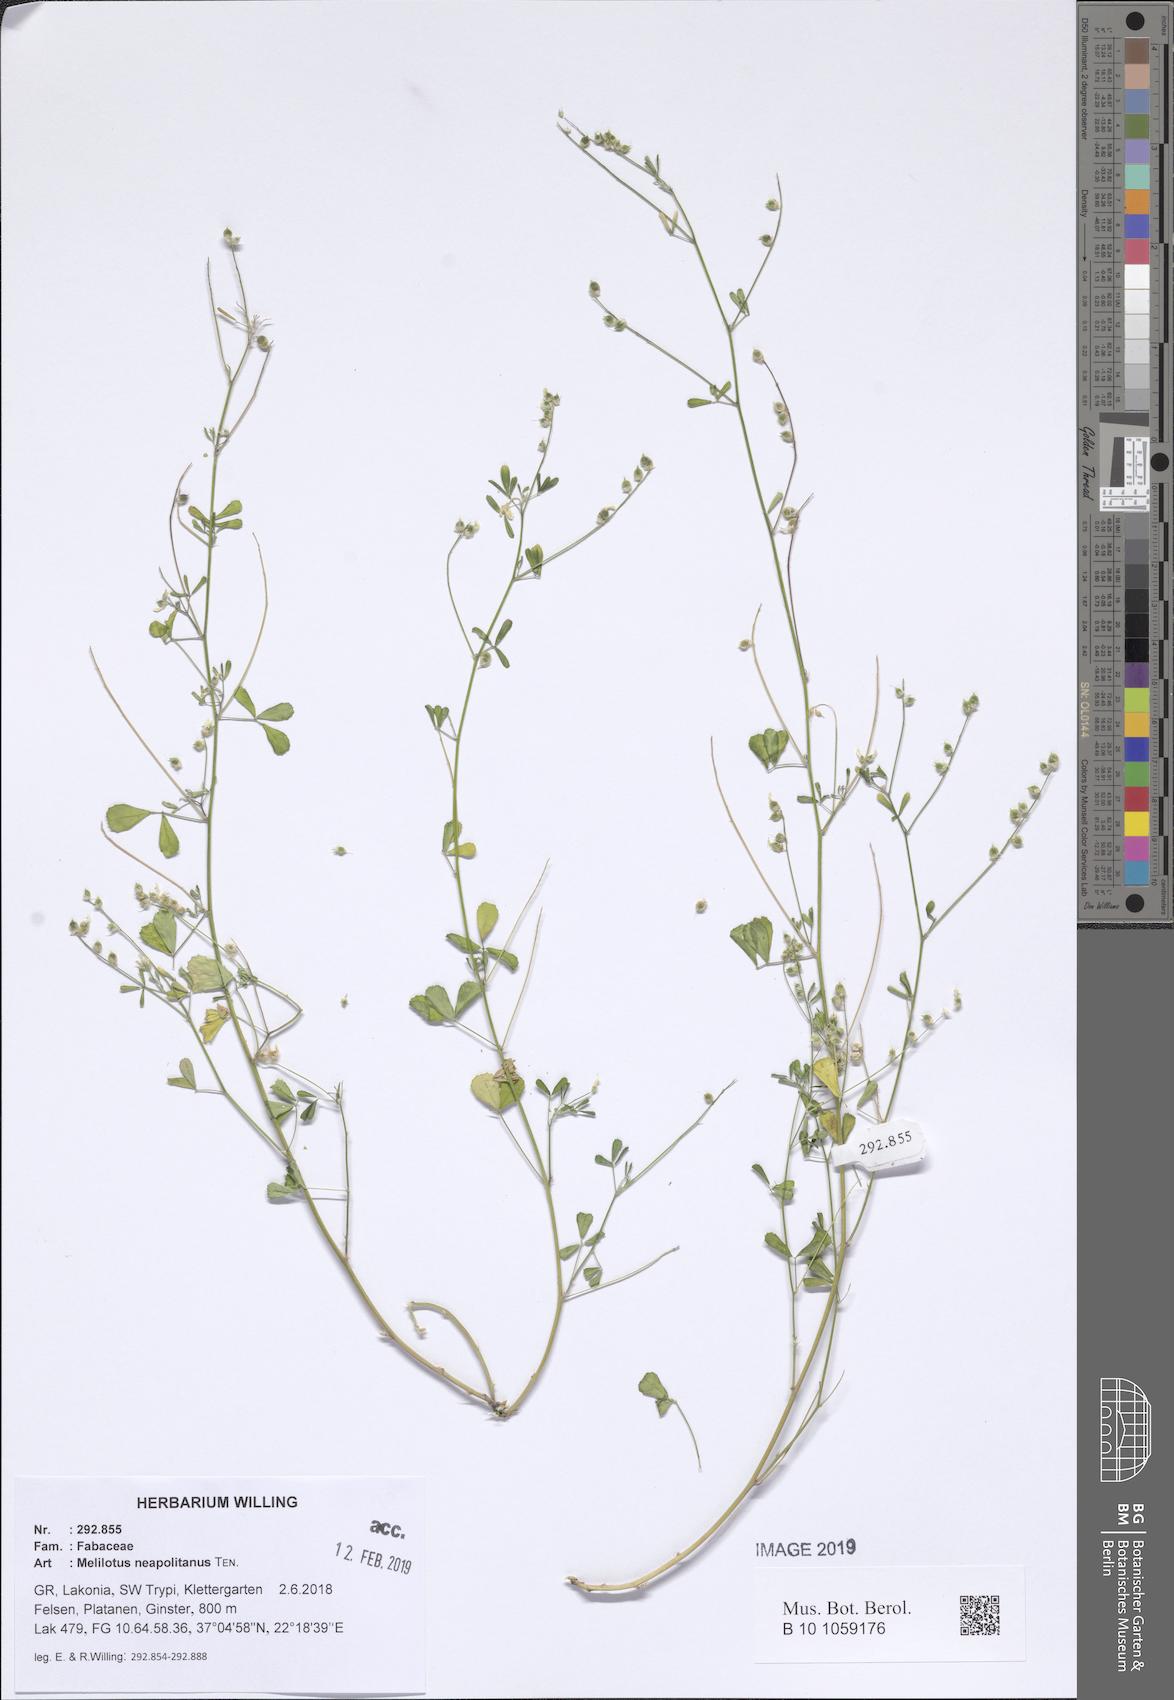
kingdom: Plantae
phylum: Tracheophyta
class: Magnoliopsida
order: Fabales
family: Fabaceae
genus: Melilotus
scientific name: Melilotus neapolitanus
